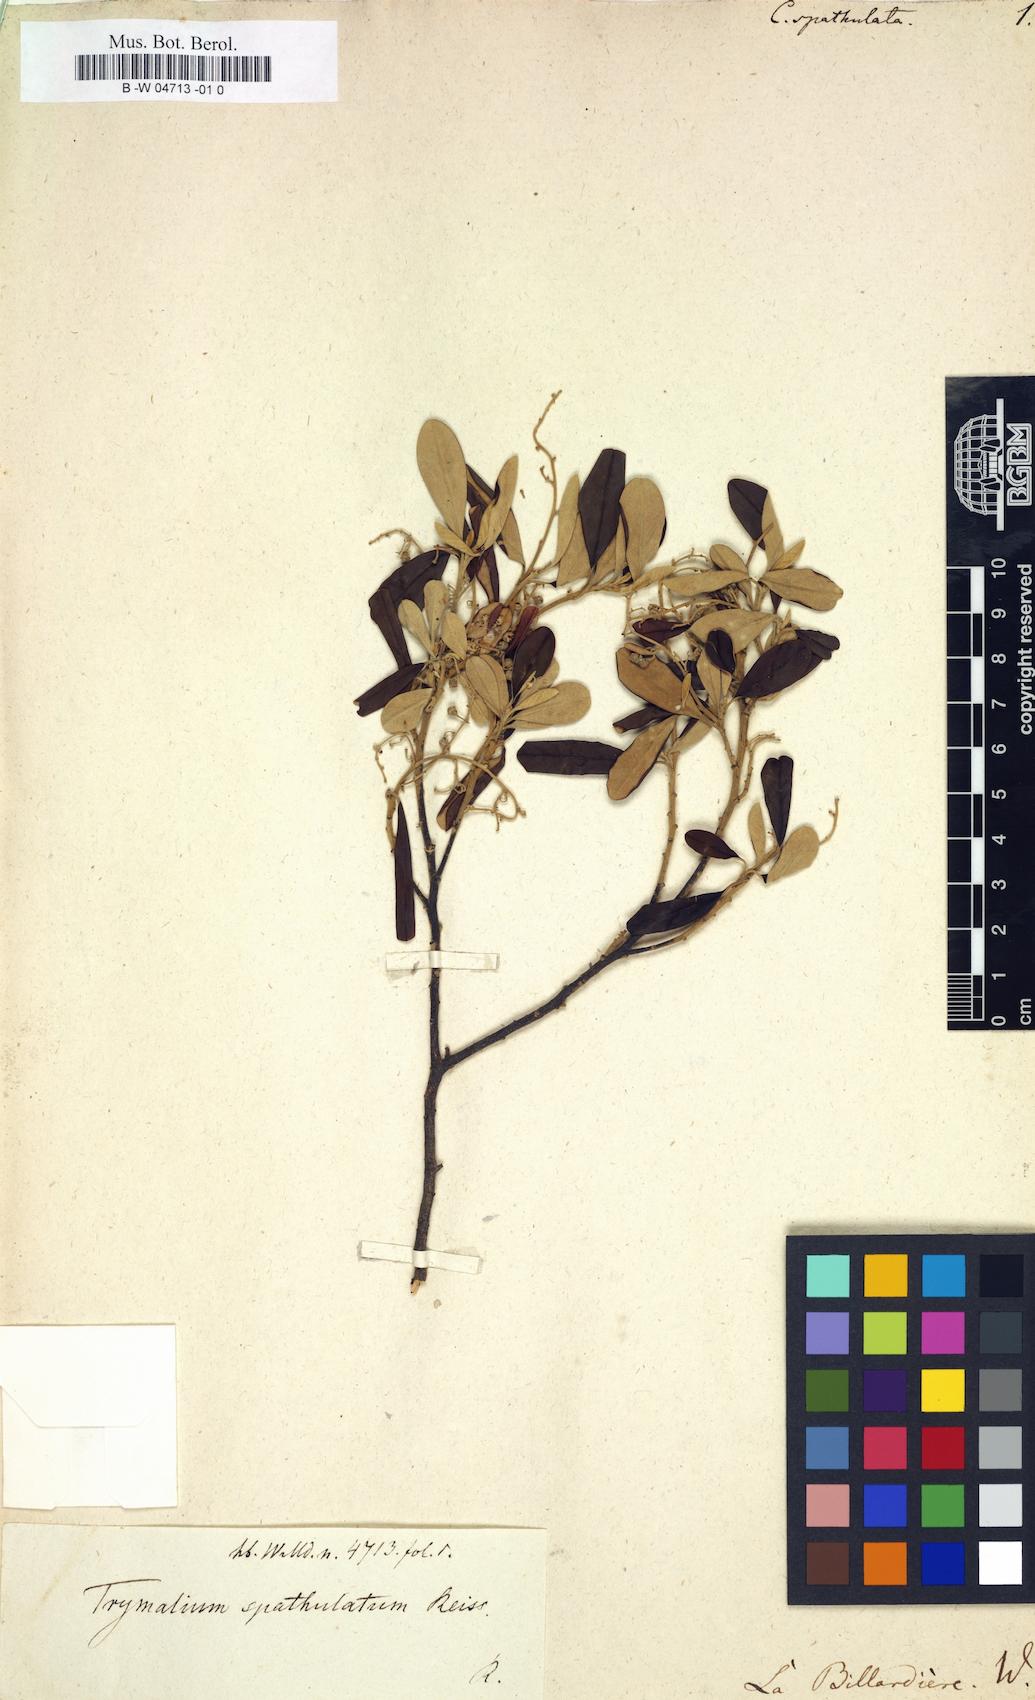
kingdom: Plantae
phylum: Tracheophyta
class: Magnoliopsida
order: Rosales
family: Rhamnaceae
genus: Trymalium
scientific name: Trymalium odoratissimum
